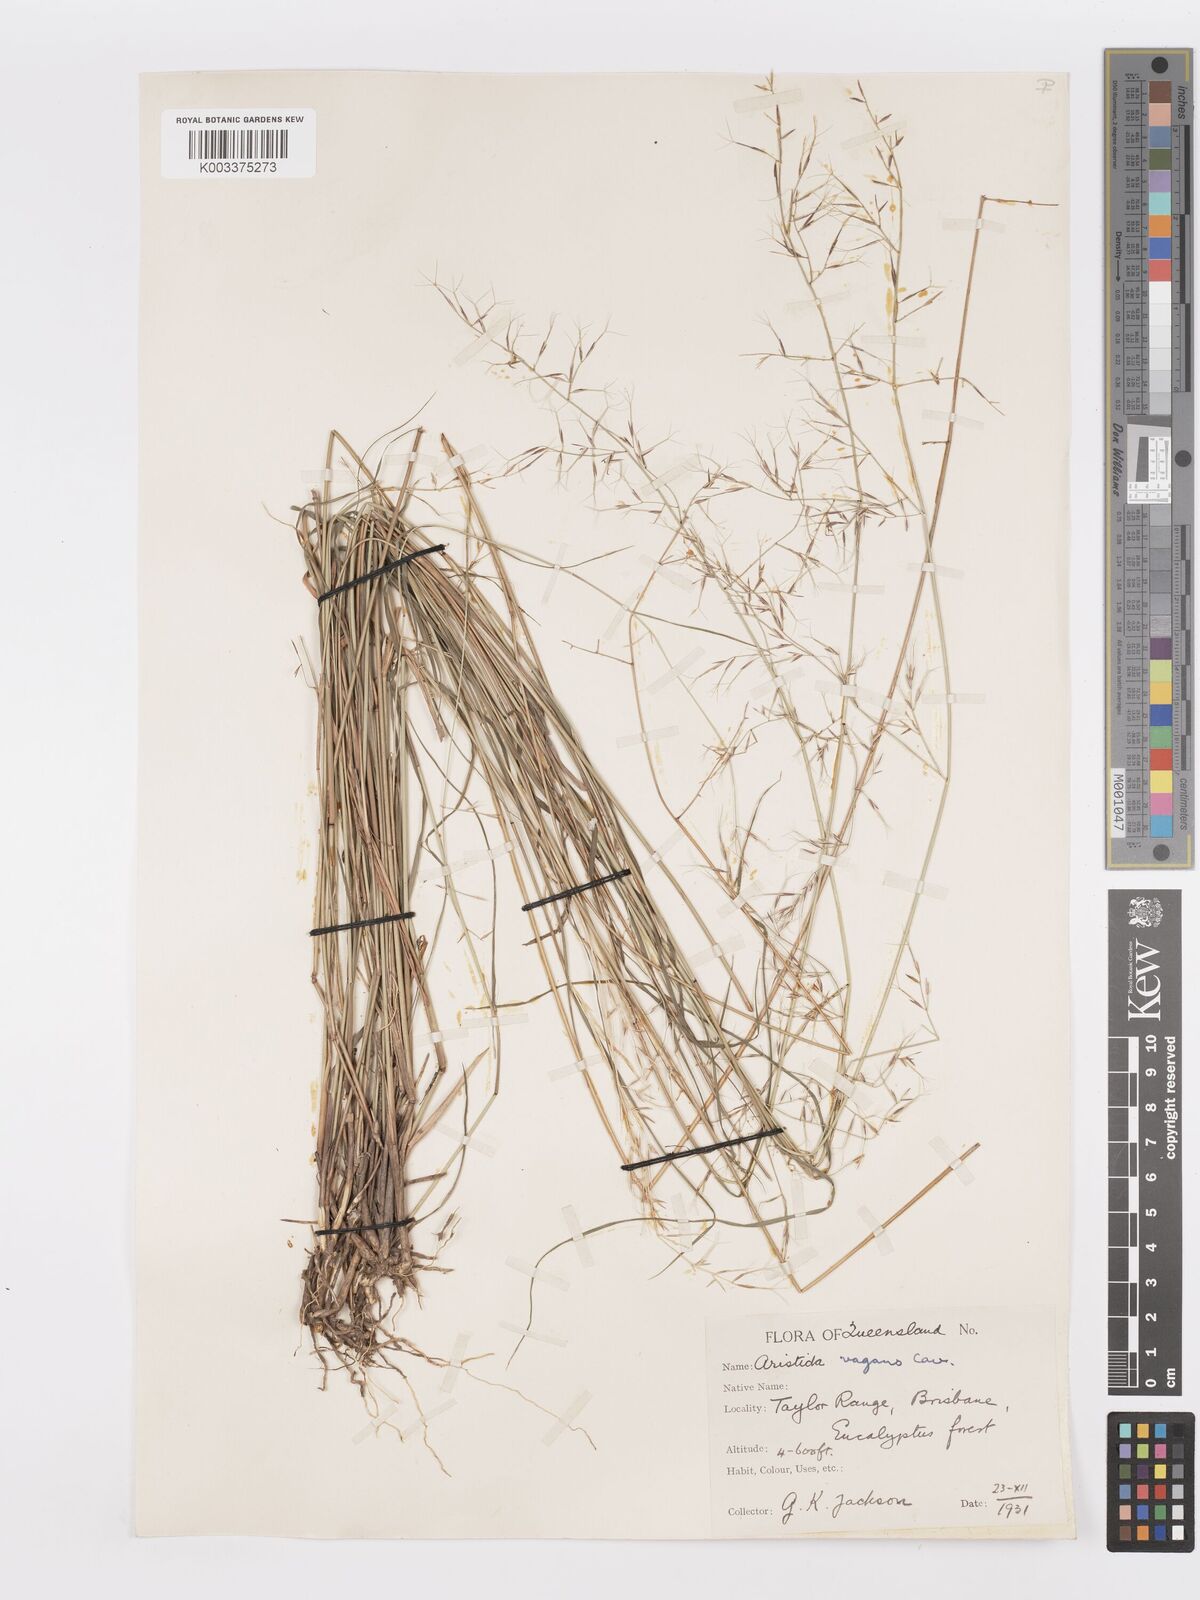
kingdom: Plantae
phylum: Tracheophyta
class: Liliopsida
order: Poales
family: Poaceae
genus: Aristida
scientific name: Aristida vagans
